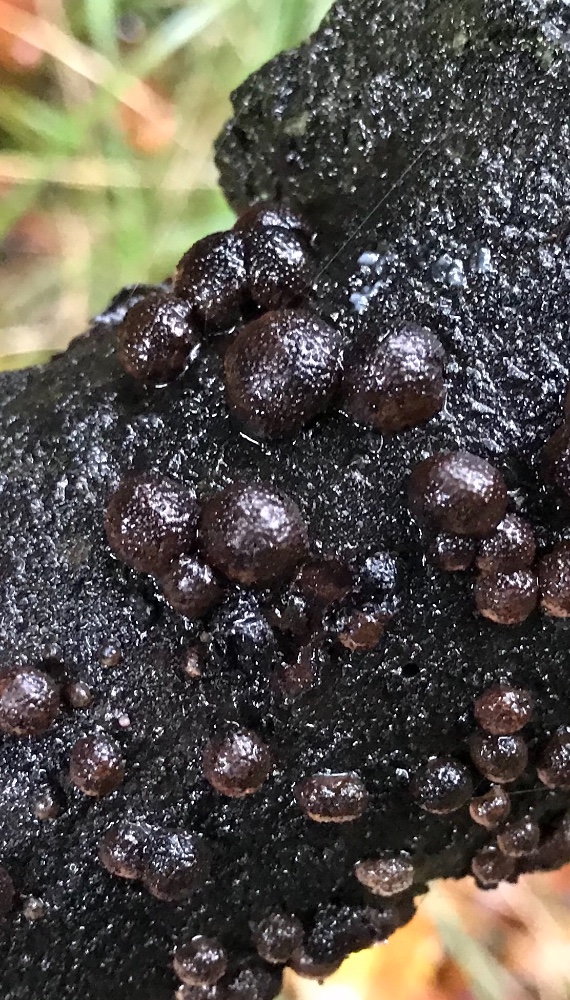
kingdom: Fungi
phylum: Ascomycota
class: Sordariomycetes
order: Xylariales
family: Hypoxylaceae
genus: Hypoxylon
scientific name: Hypoxylon fragiforme
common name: kuljordbær
